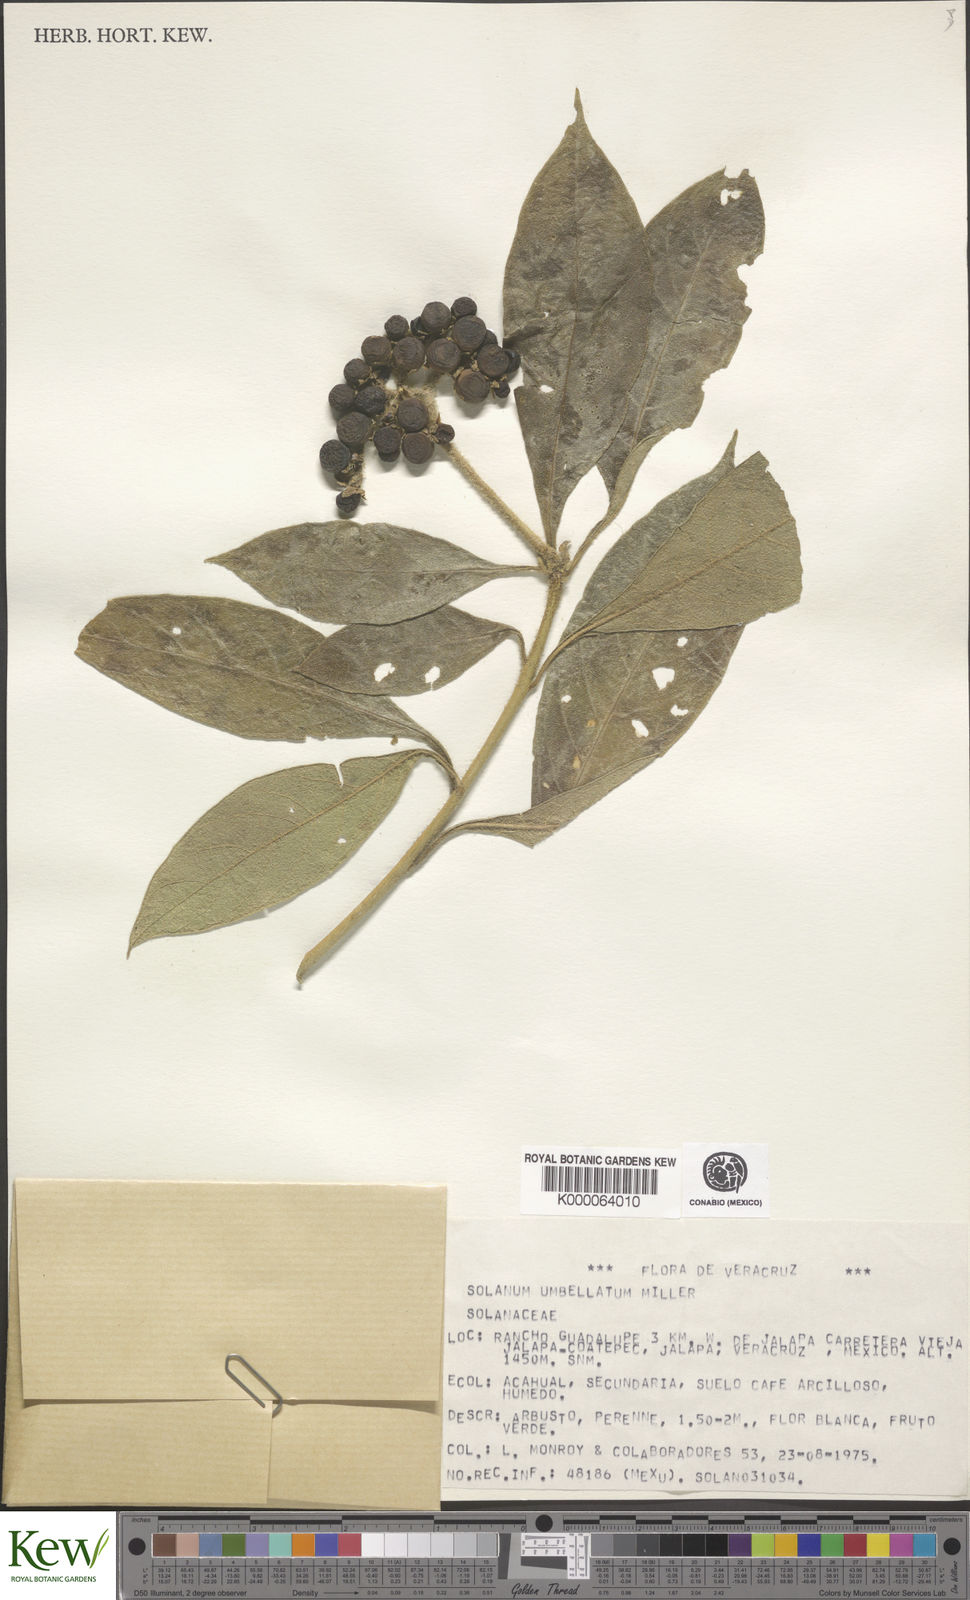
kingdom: Plantae
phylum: Tracheophyta
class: Magnoliopsida
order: Solanales
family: Solanaceae
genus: Solanum
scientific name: Solanum umbellatum
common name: Nightshade
